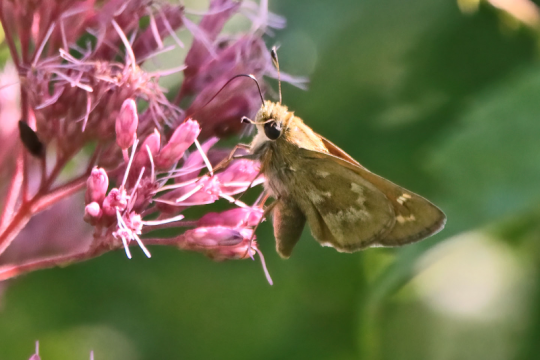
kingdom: Animalia
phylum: Arthropoda
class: Insecta
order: Lepidoptera
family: Hesperiidae
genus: Atalopedes
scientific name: Atalopedes campestris
